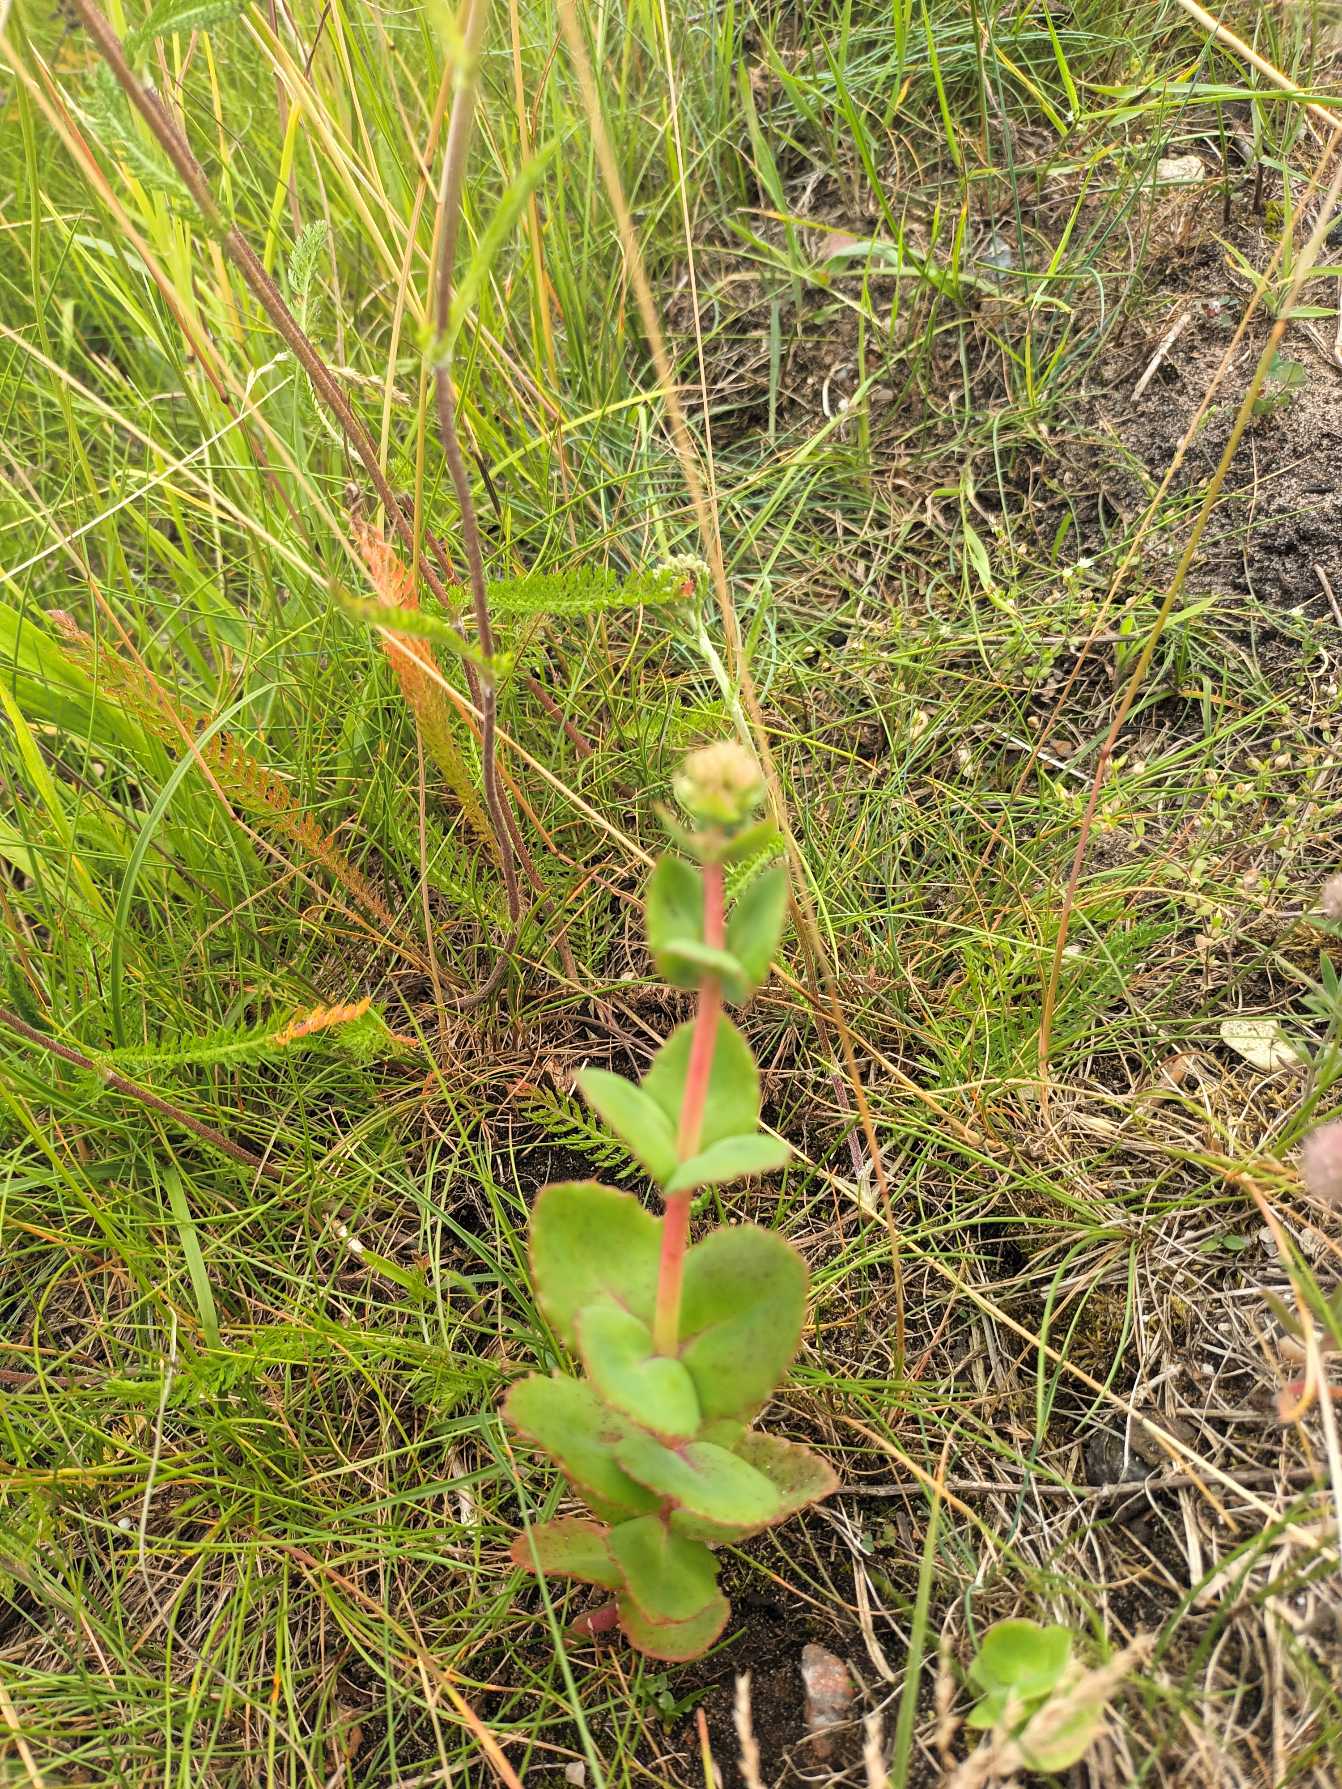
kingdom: Plantae
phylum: Tracheophyta
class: Magnoliopsida
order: Saxifragales
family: Crassulaceae
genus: Hylotelephium
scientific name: Hylotelephium maximum
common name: Almindelig sankthansurt
